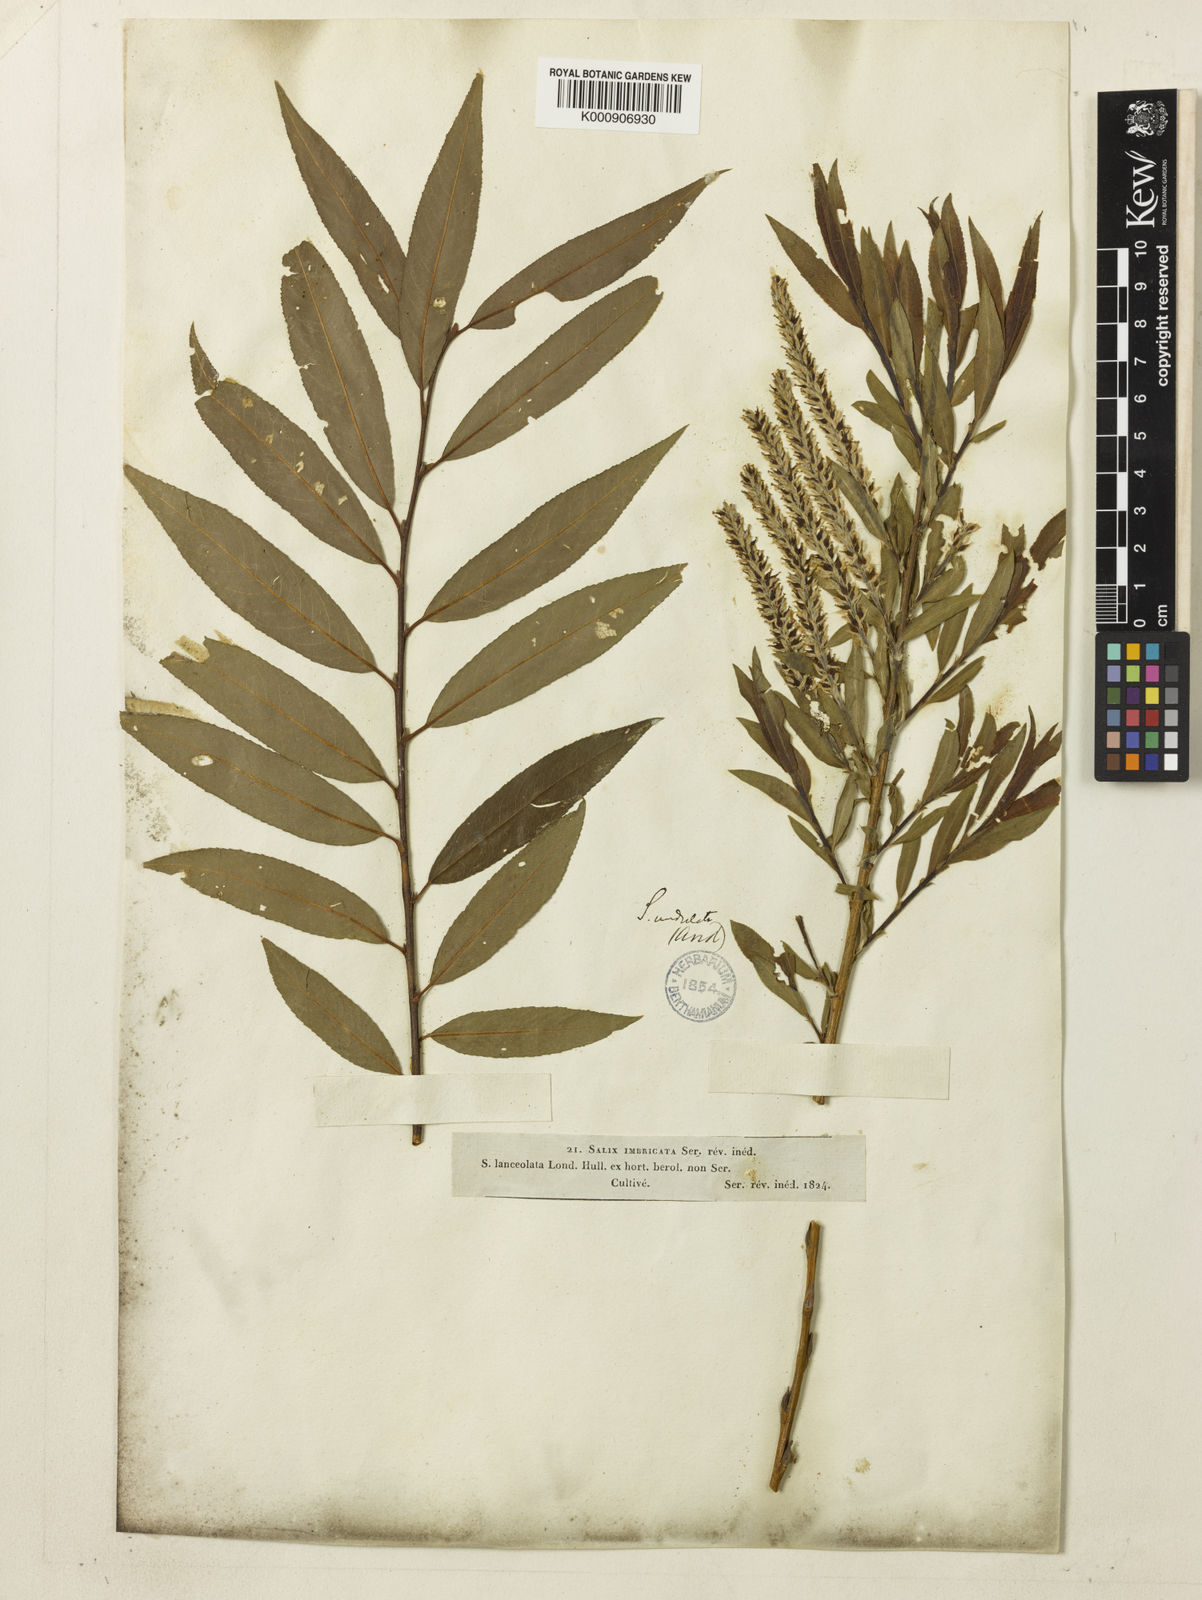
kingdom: Plantae
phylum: Tracheophyta
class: Magnoliopsida
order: Malpighiales
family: Salicaceae
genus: Salix
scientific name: Salix alba
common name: White willow
